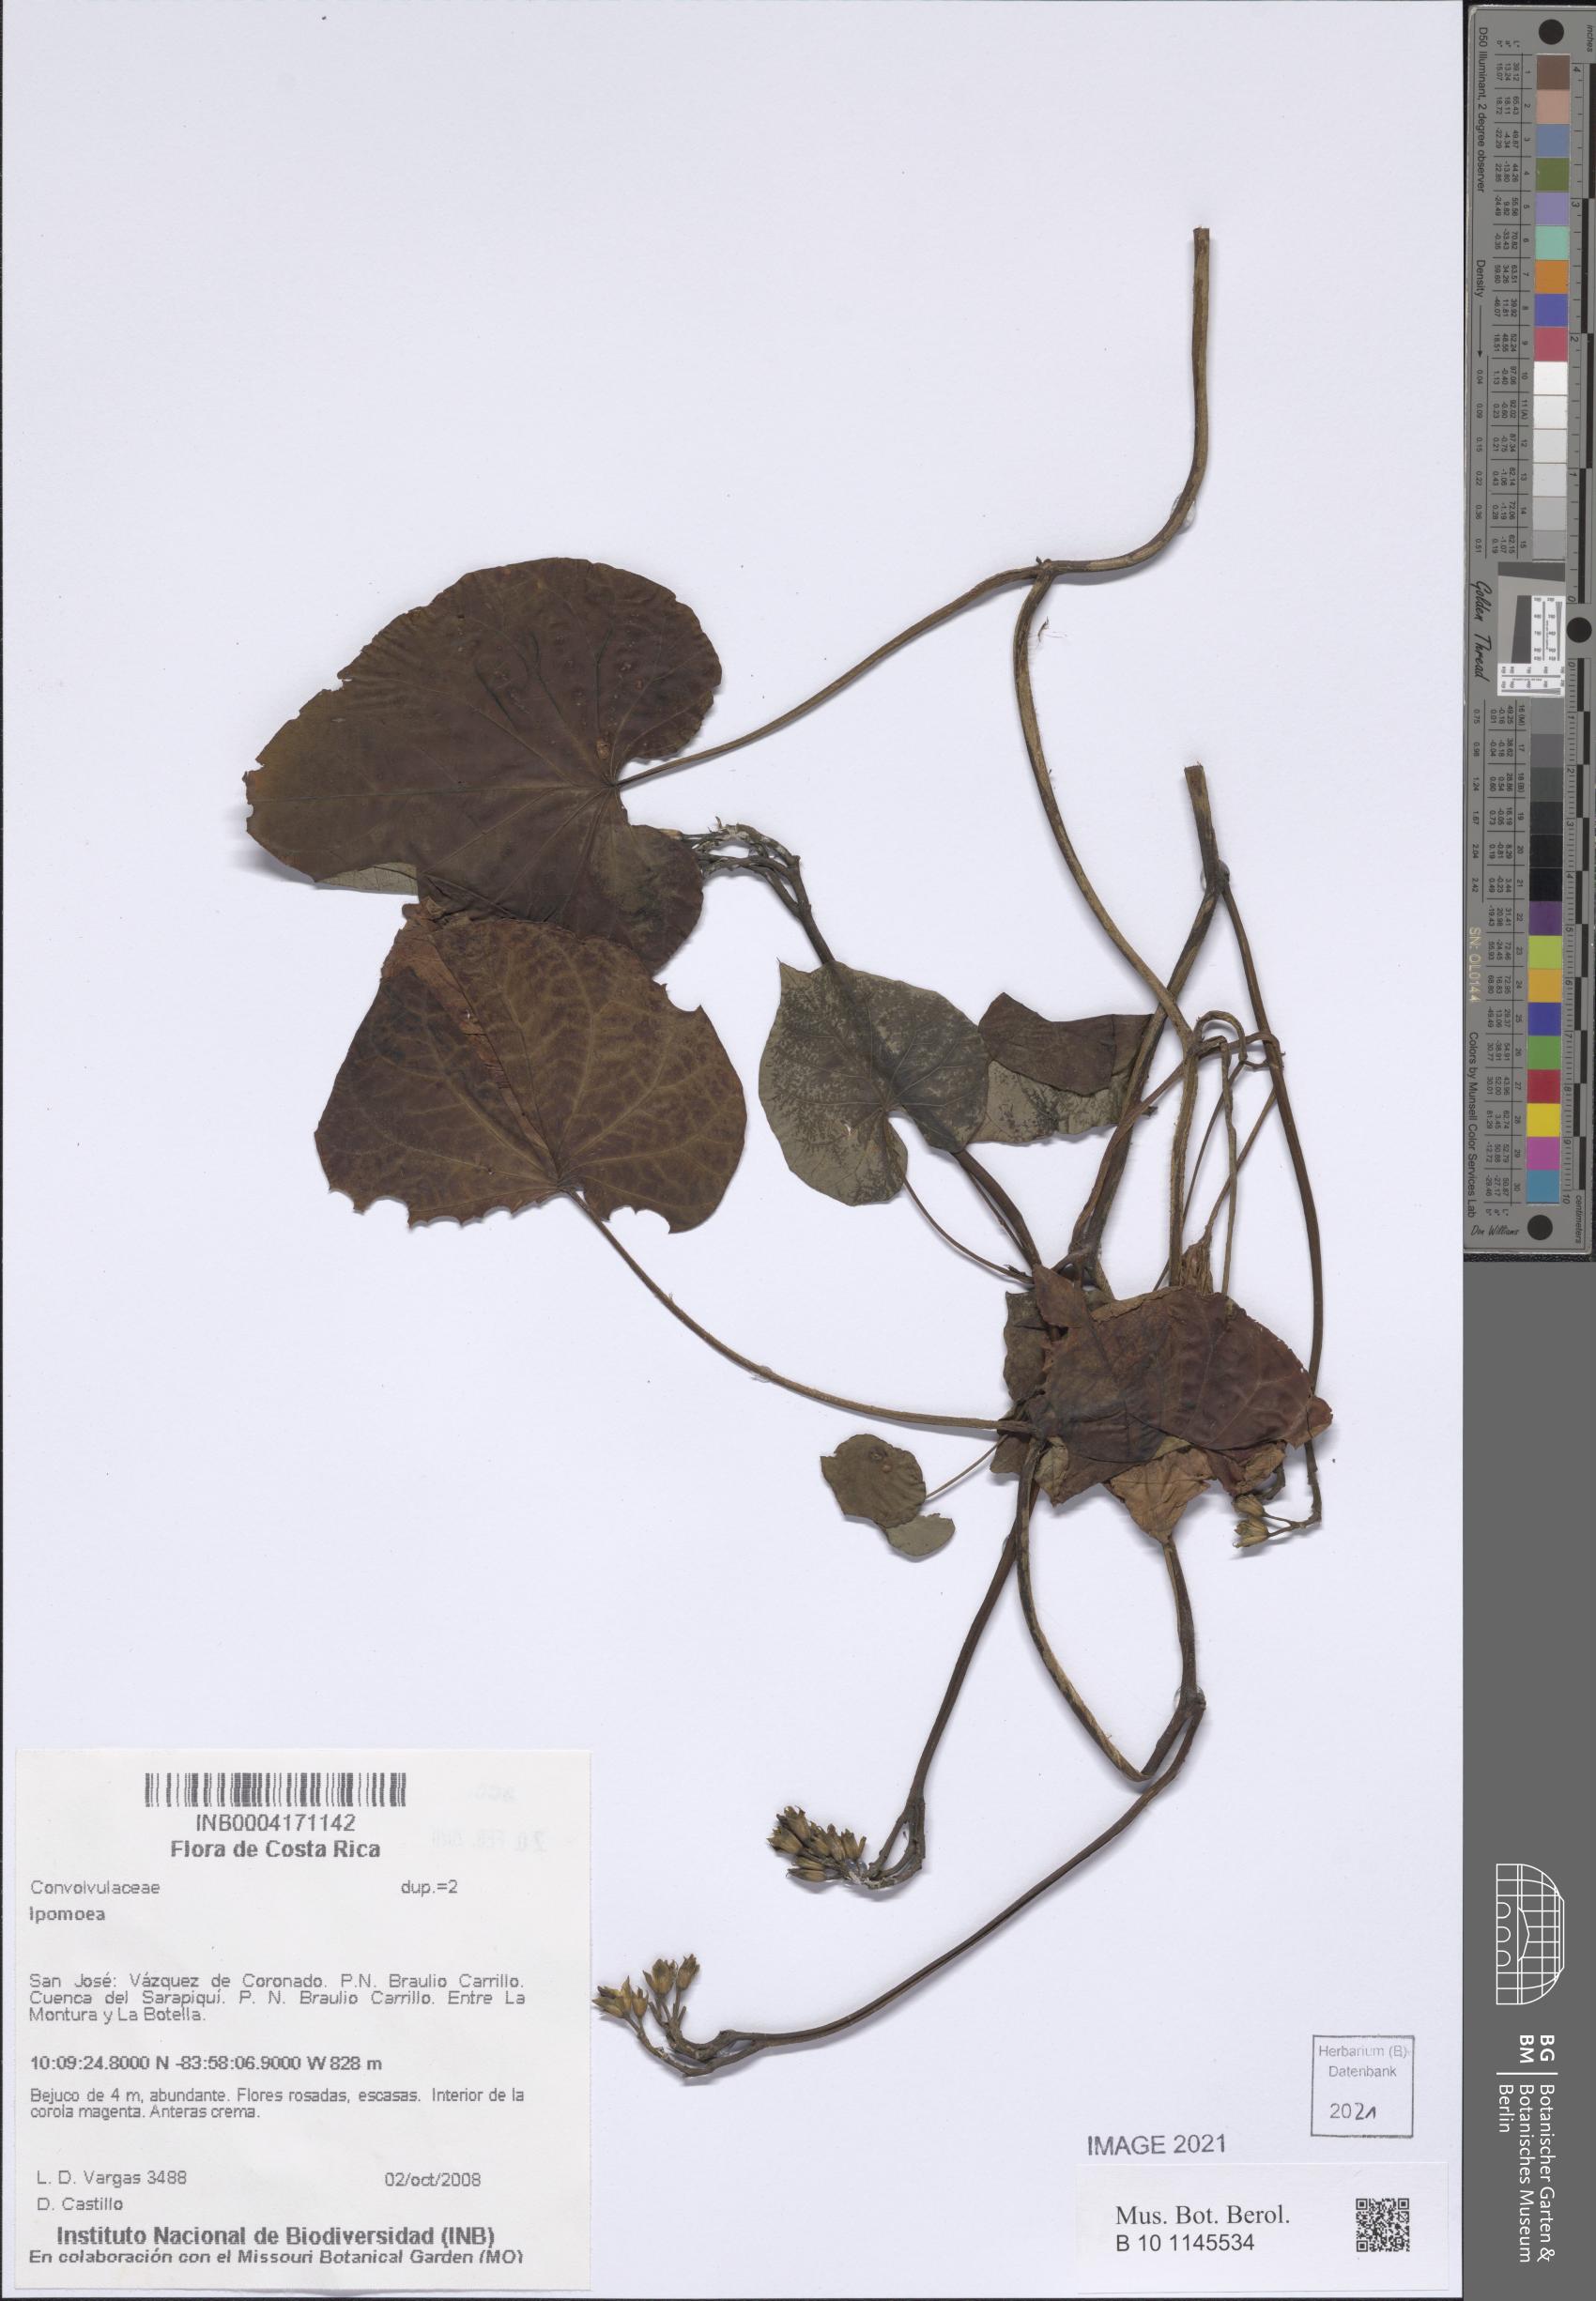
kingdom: Plantae
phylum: Tracheophyta
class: Magnoliopsida
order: Solanales
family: Convolvulaceae
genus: Ipomoea
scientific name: Ipomoea
